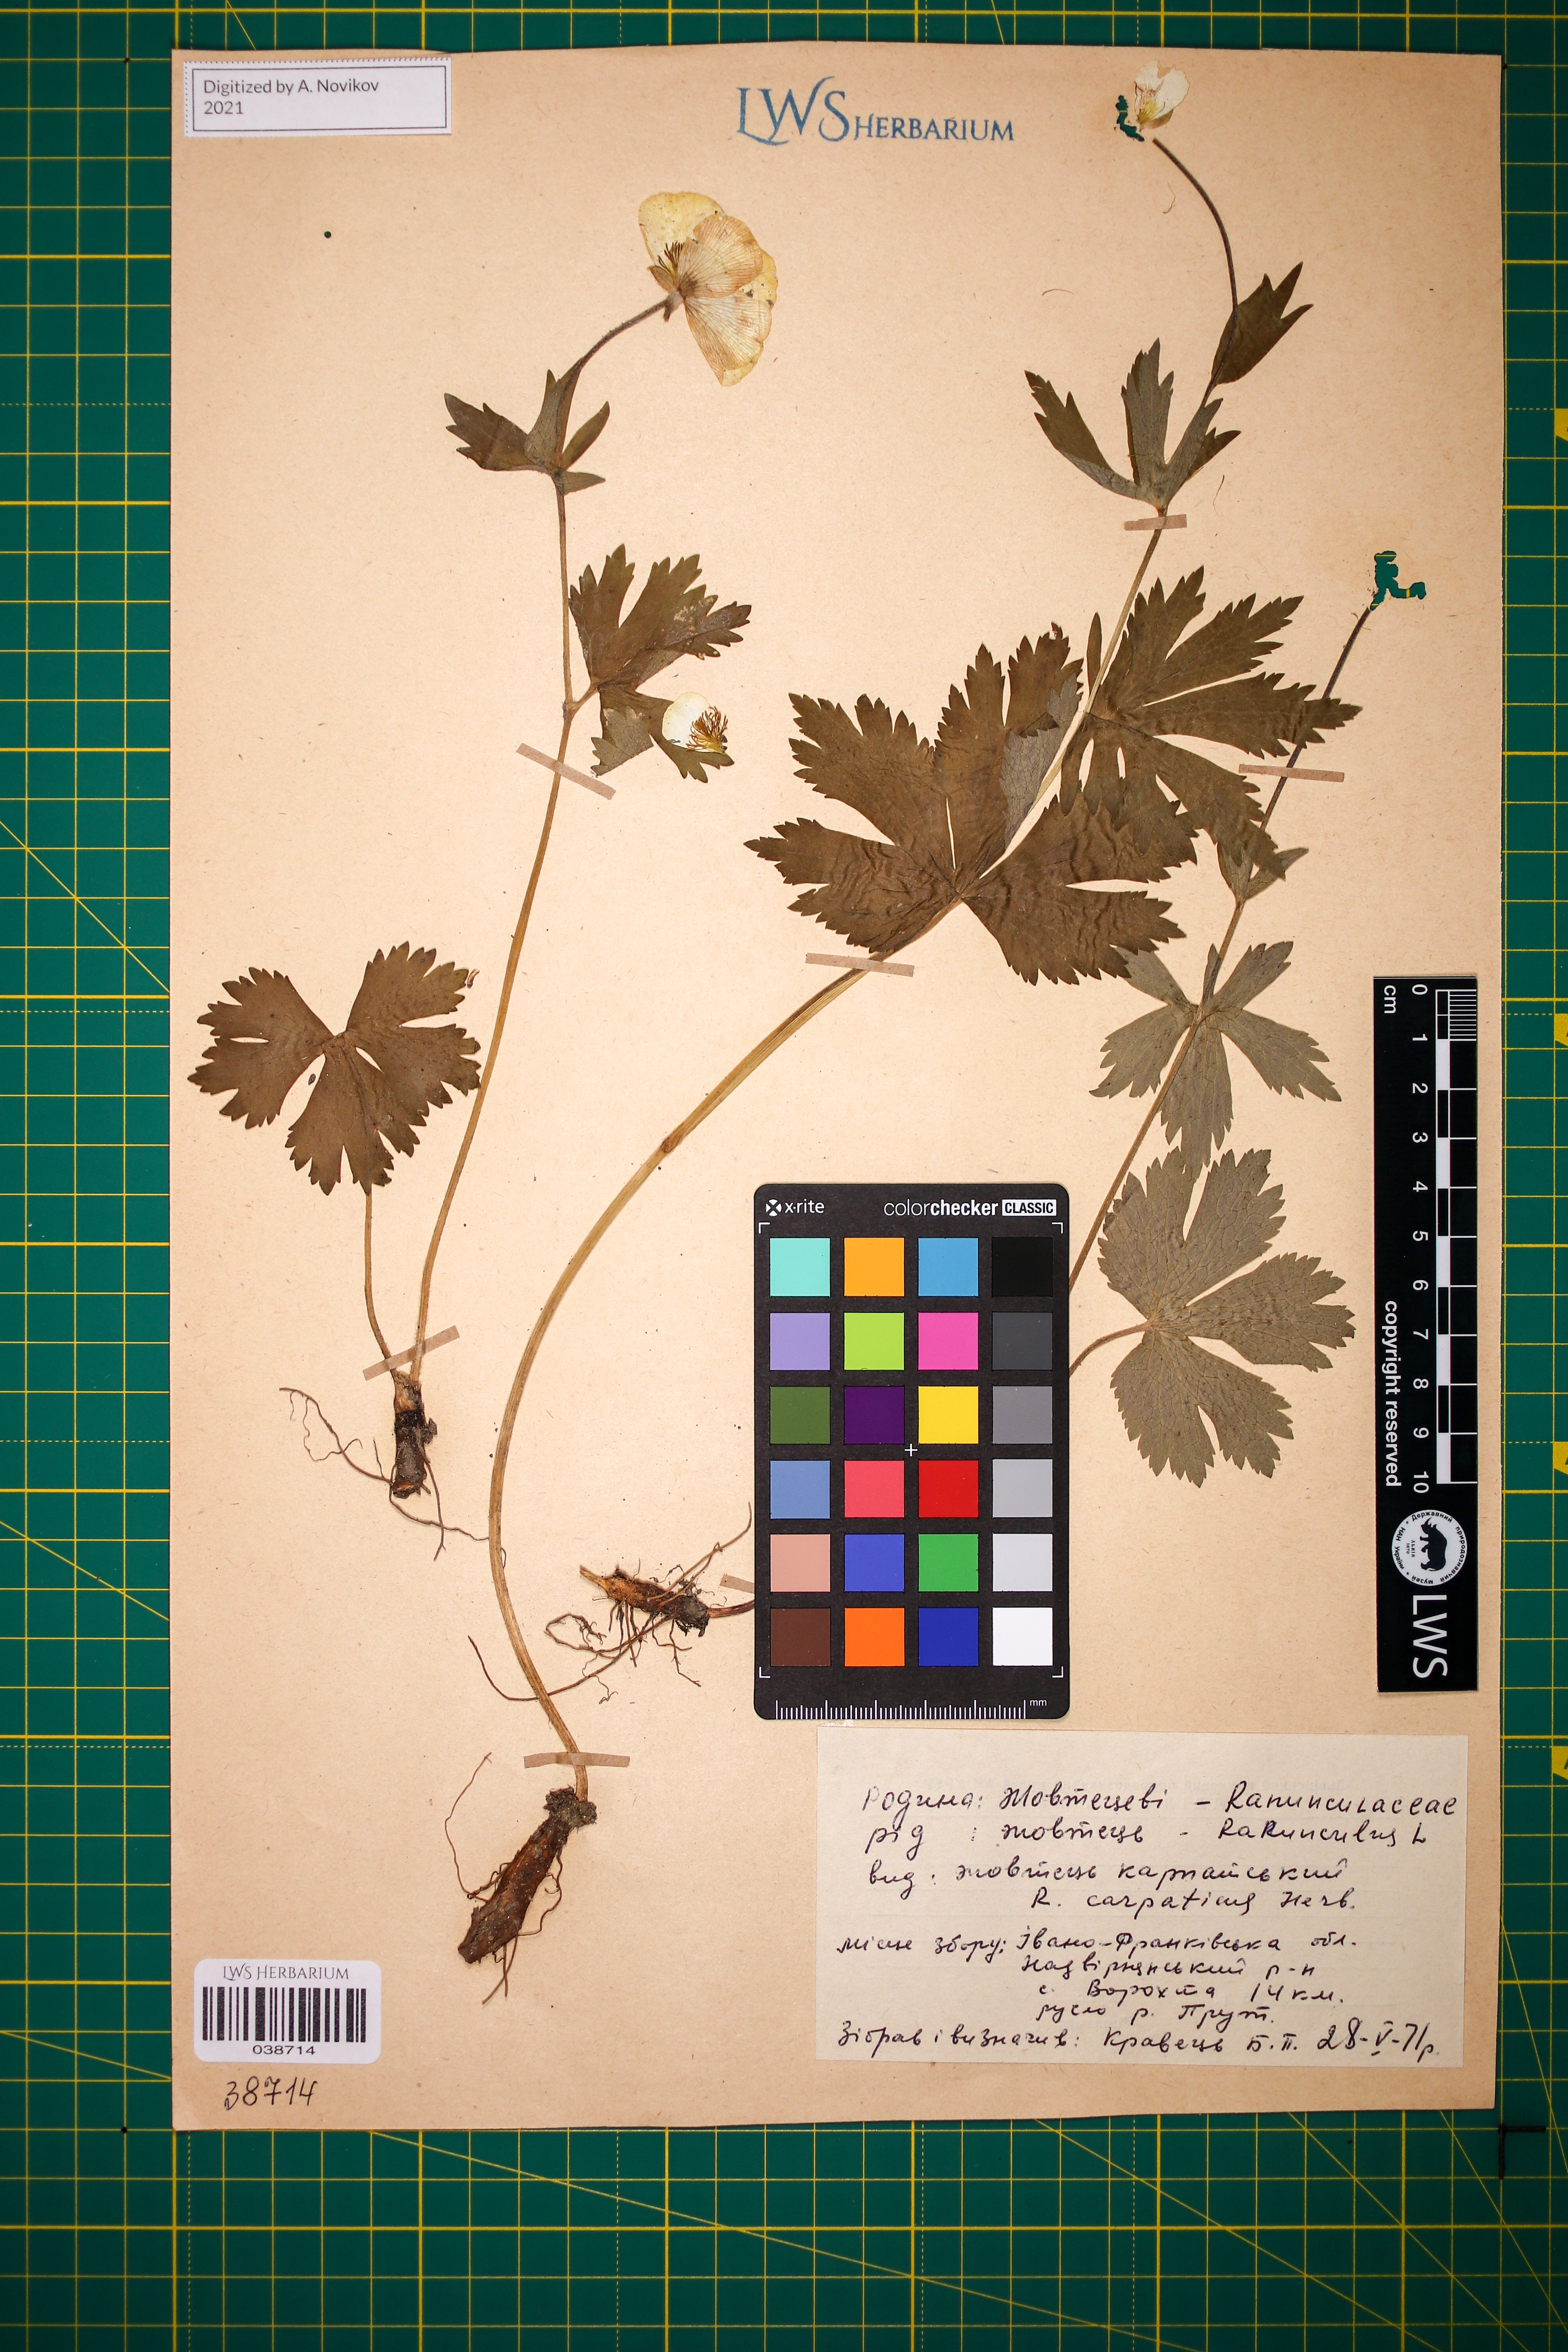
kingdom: Plantae
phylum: Tracheophyta
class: Magnoliopsida
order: Ranunculales
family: Ranunculaceae
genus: Ranunculus
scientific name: Ranunculus carpaticus
